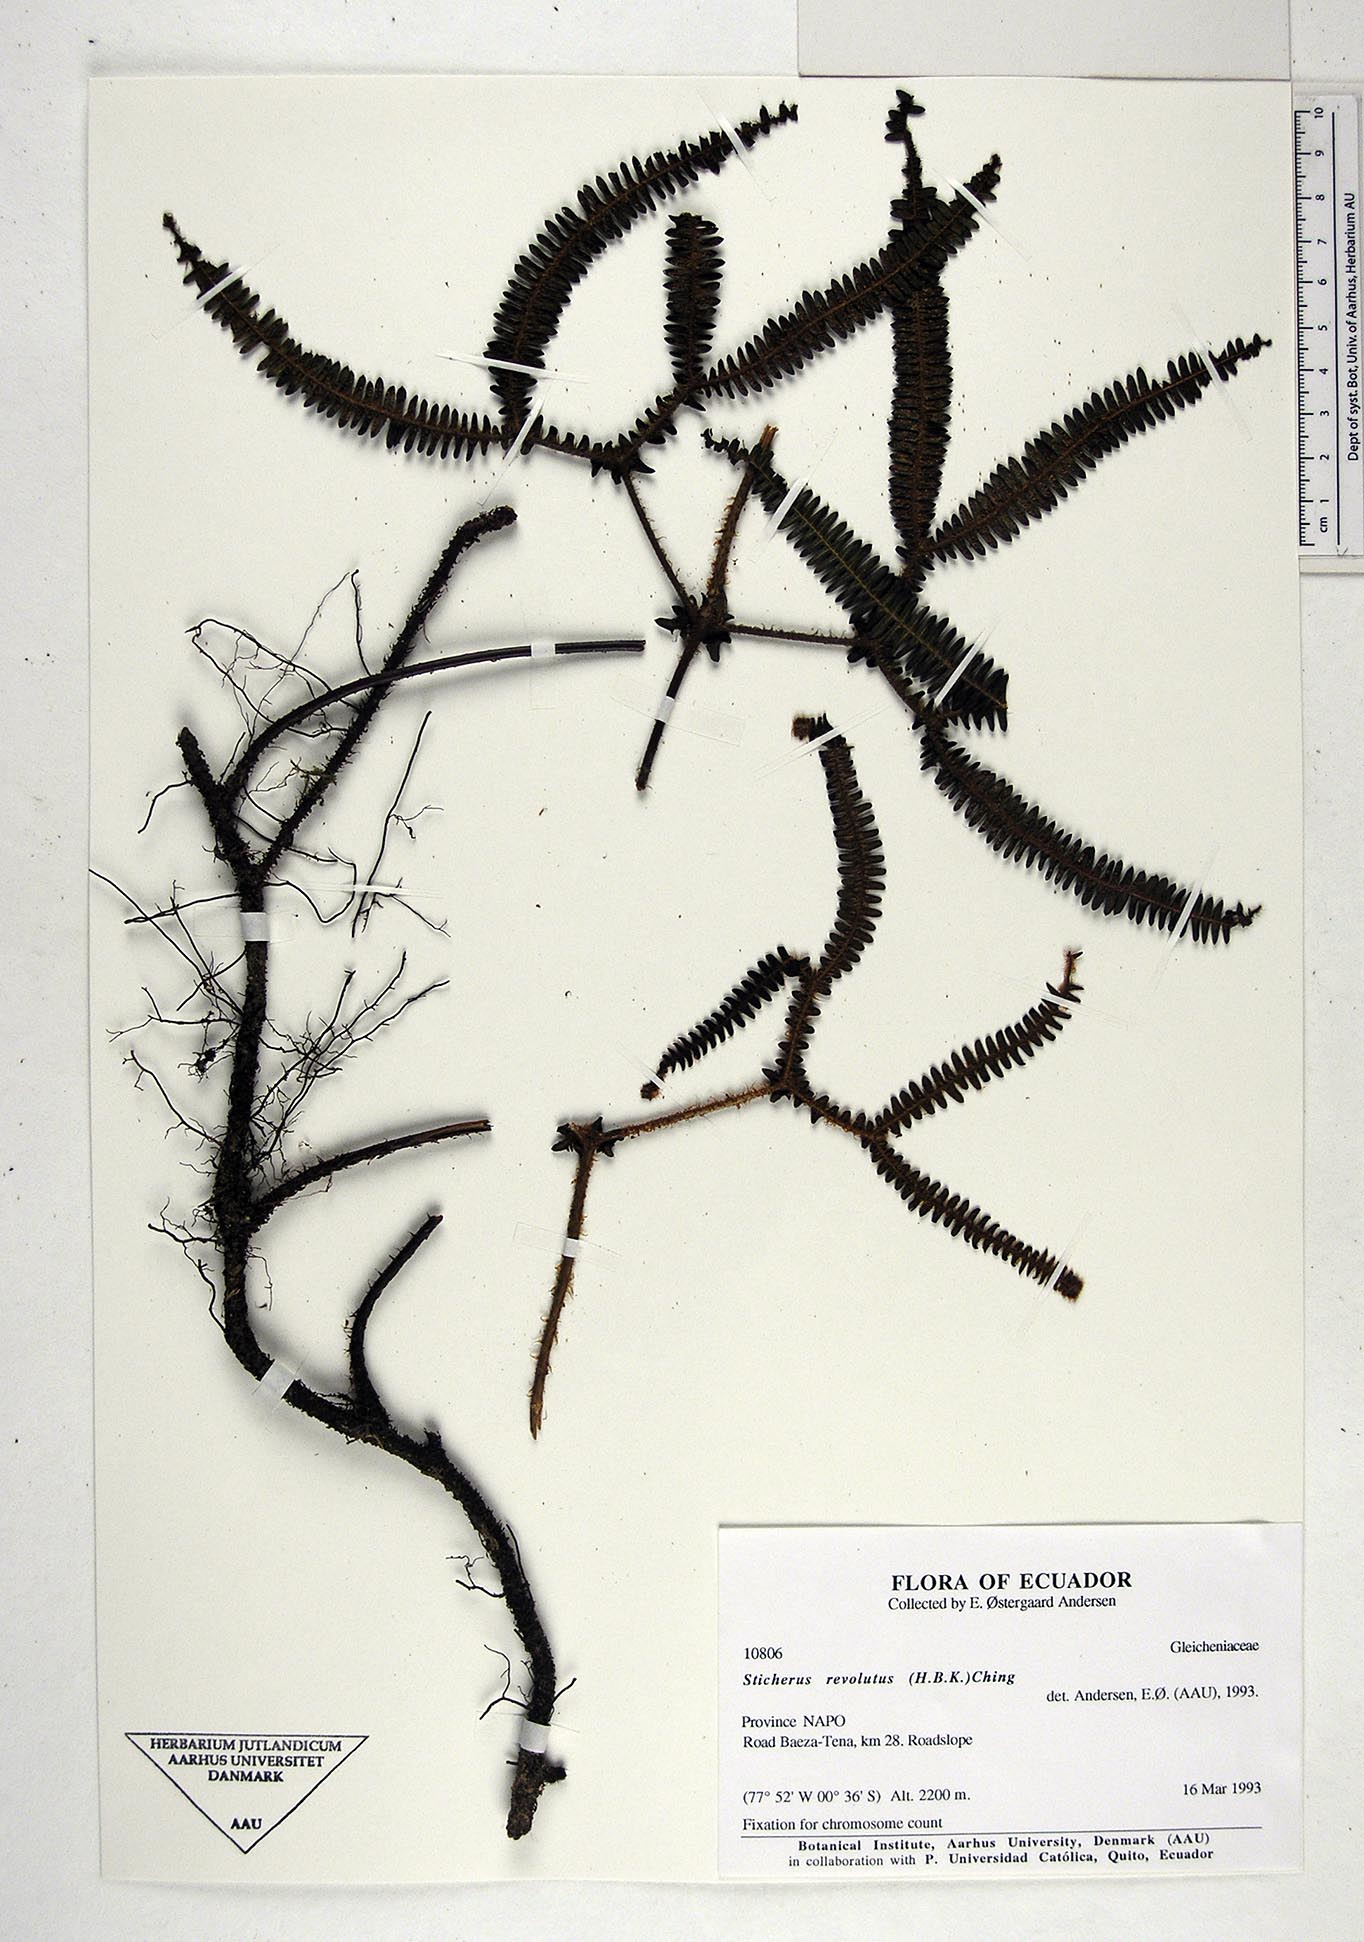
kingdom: Plantae
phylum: Tracheophyta
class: Polypodiopsida
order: Gleicheniales
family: Gleicheniaceae
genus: Sticherus
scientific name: Sticherus revolutus
